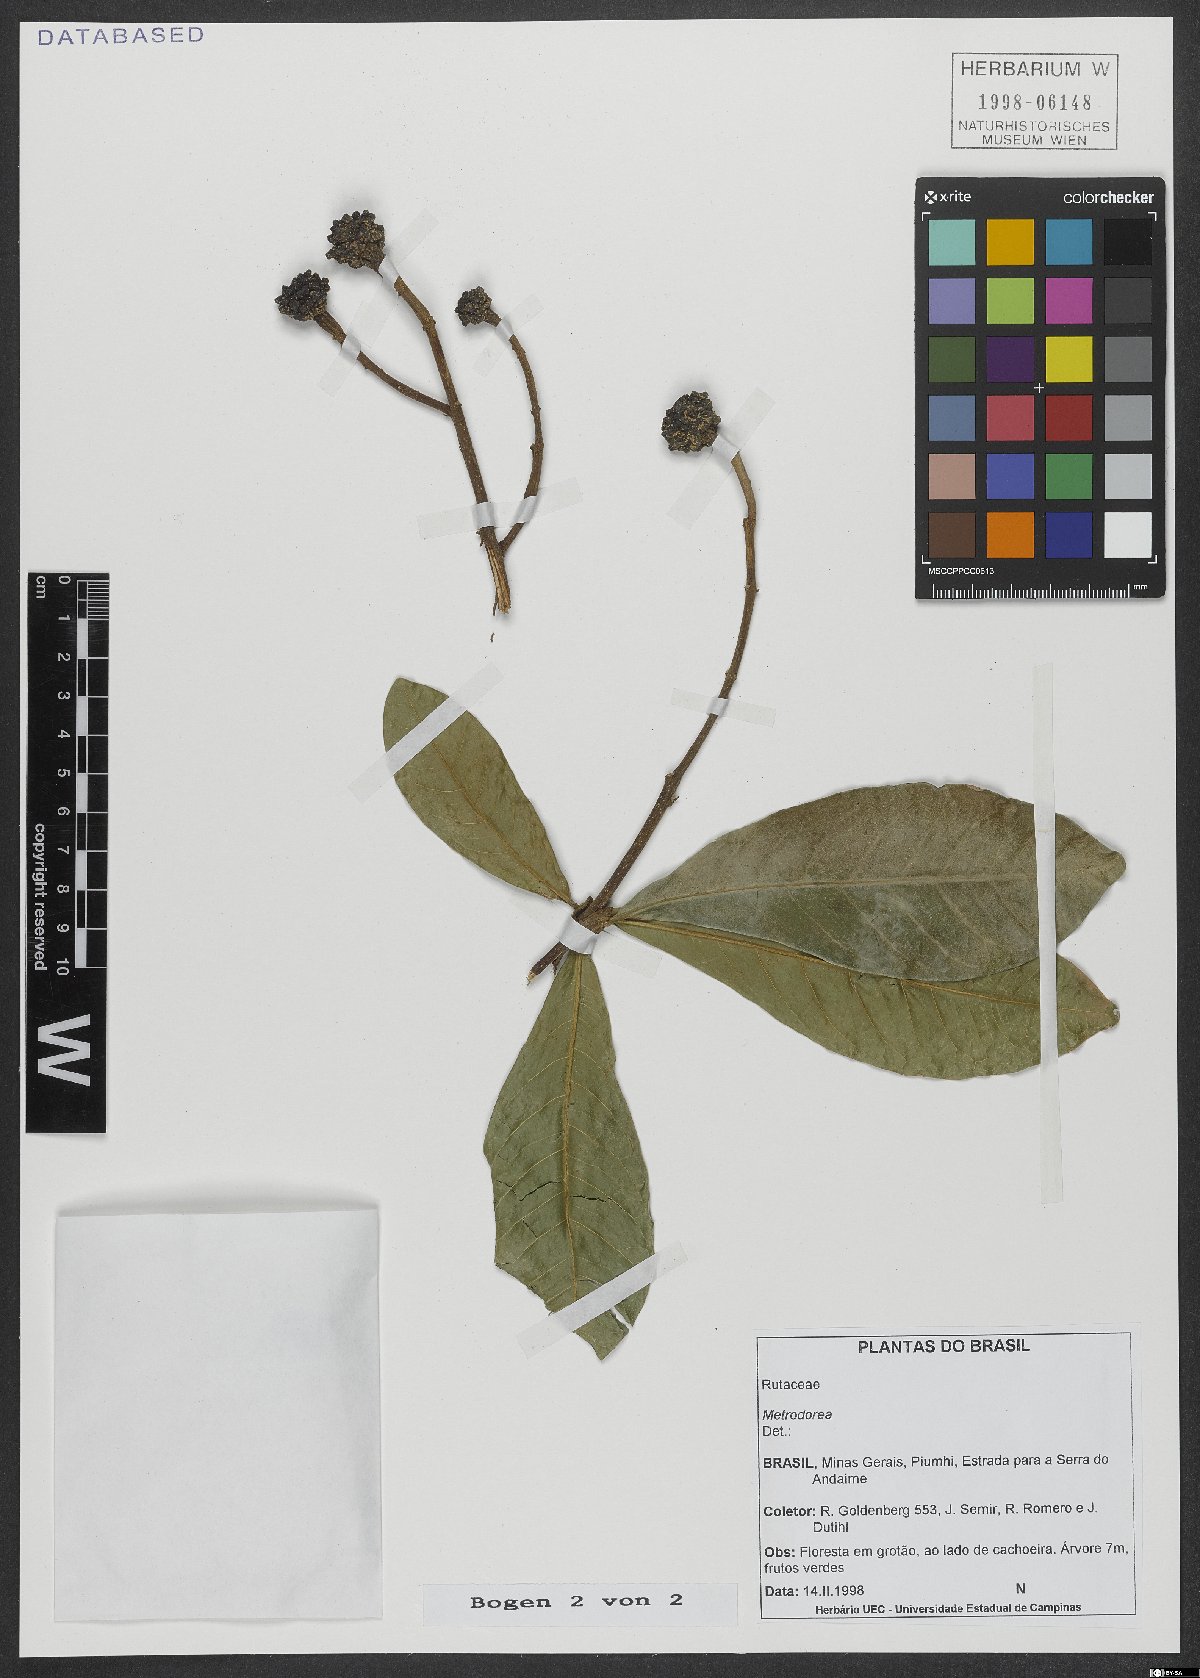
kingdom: Plantae
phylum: Tracheophyta
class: Magnoliopsida
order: Sapindales
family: Rutaceae
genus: Metrodorea
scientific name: Metrodorea
